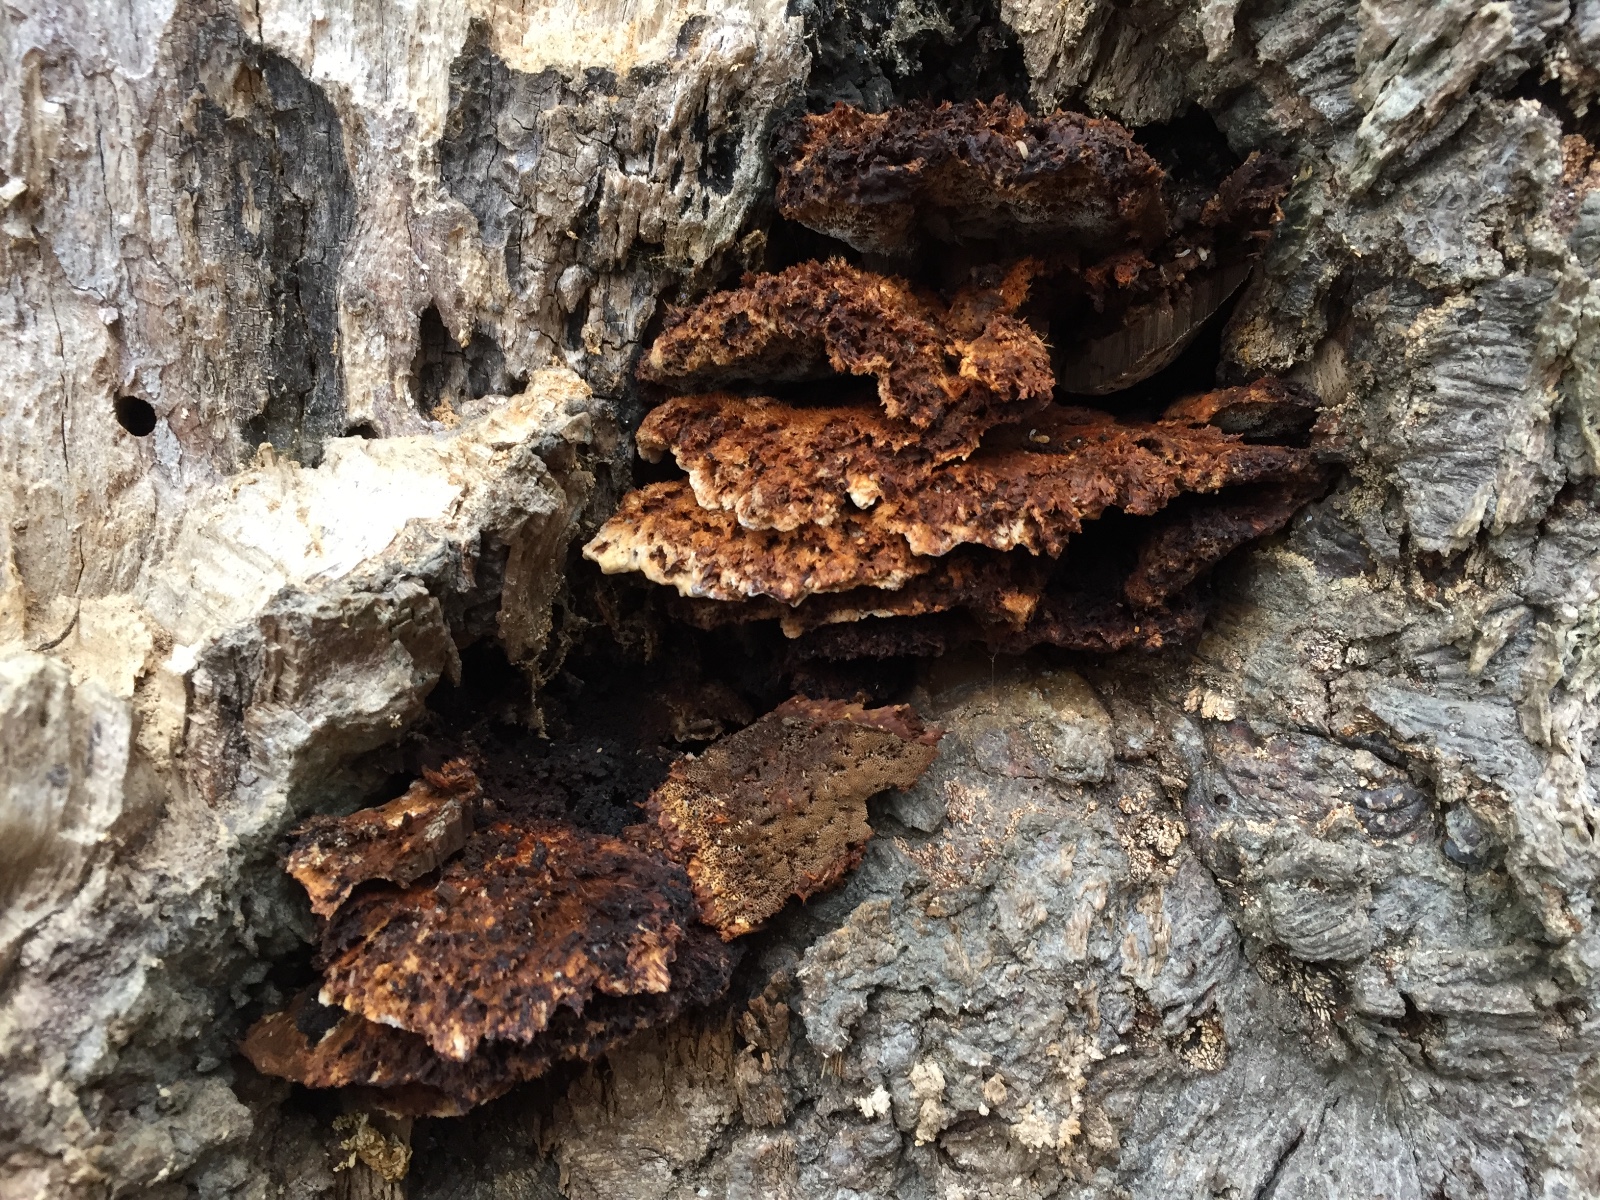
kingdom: Fungi
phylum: Basidiomycota
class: Agaricomycetes
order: Hymenochaetales
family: Hymenochaetaceae
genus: Inonotus
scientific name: Inonotus cuticularis
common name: kroghåret spejlporesvamp
